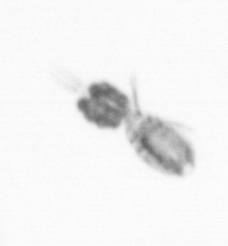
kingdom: Animalia
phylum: Arthropoda
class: Copepoda
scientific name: Copepoda
